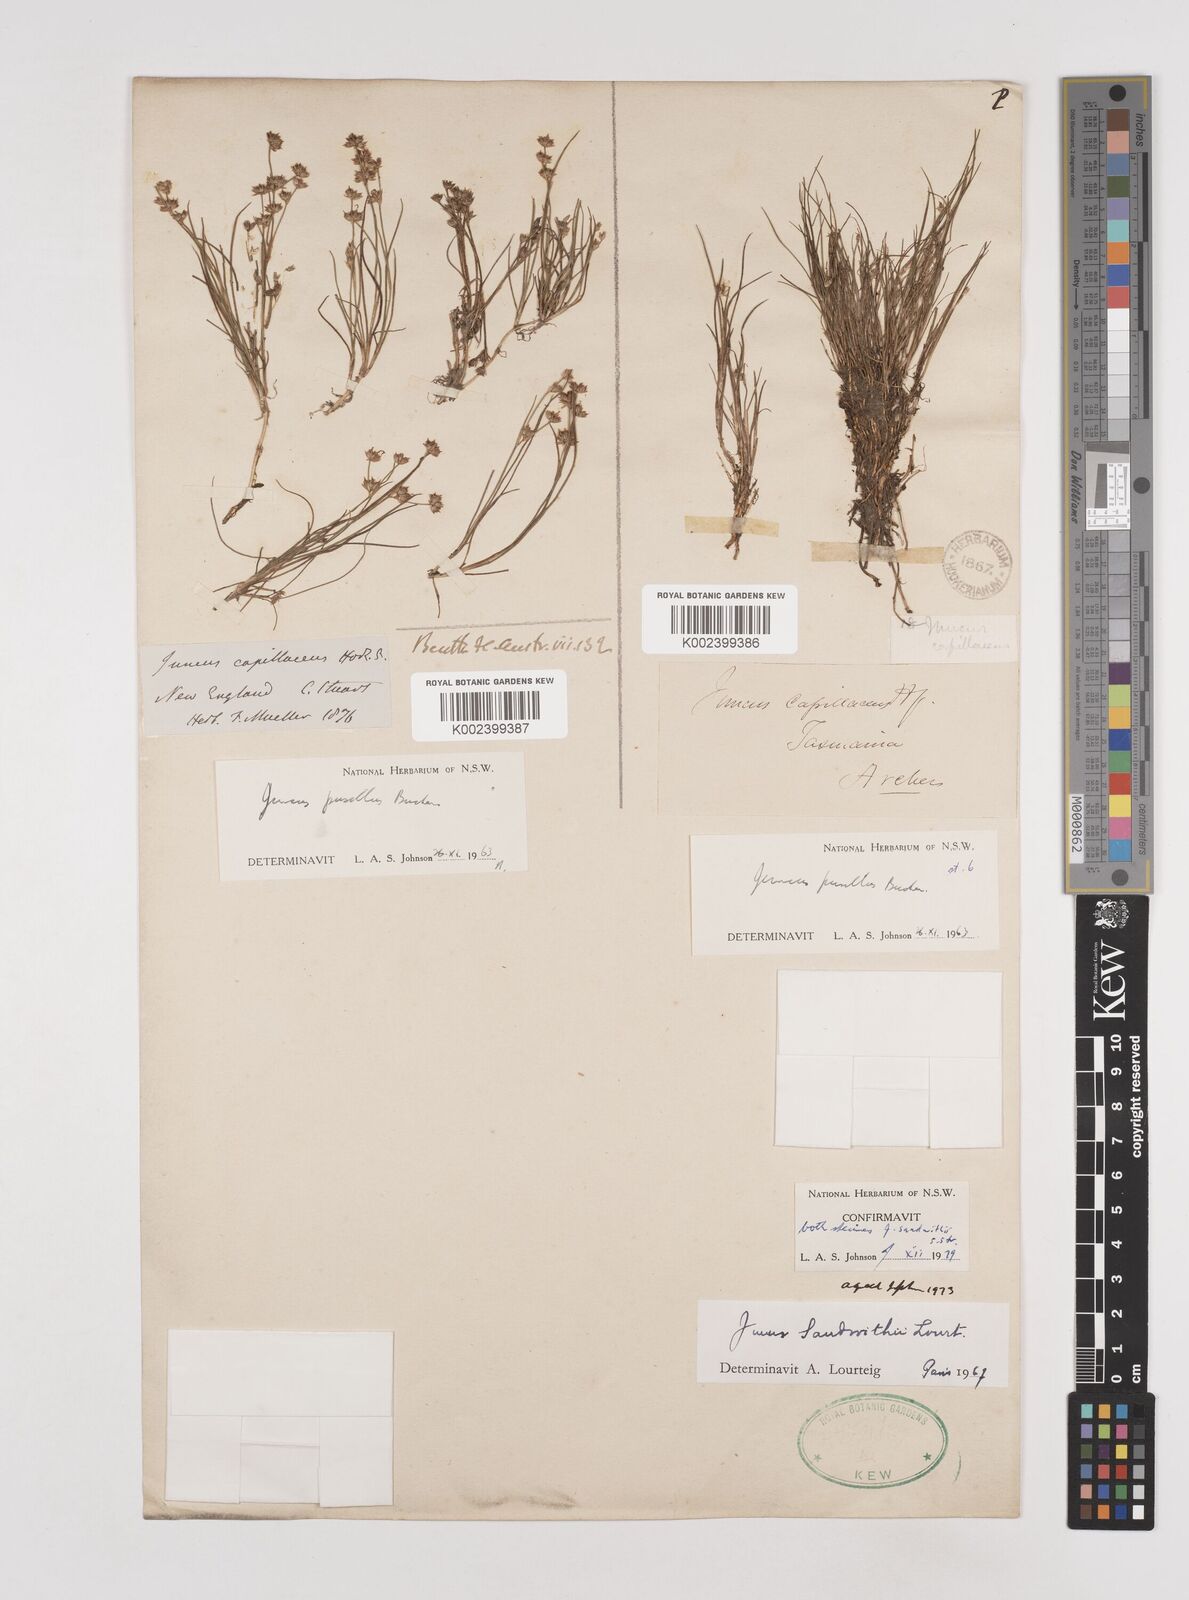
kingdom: Plantae
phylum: Tracheophyta
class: Liliopsida
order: Poales
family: Juncaceae
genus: Juncus
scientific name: Juncus sandwithii
